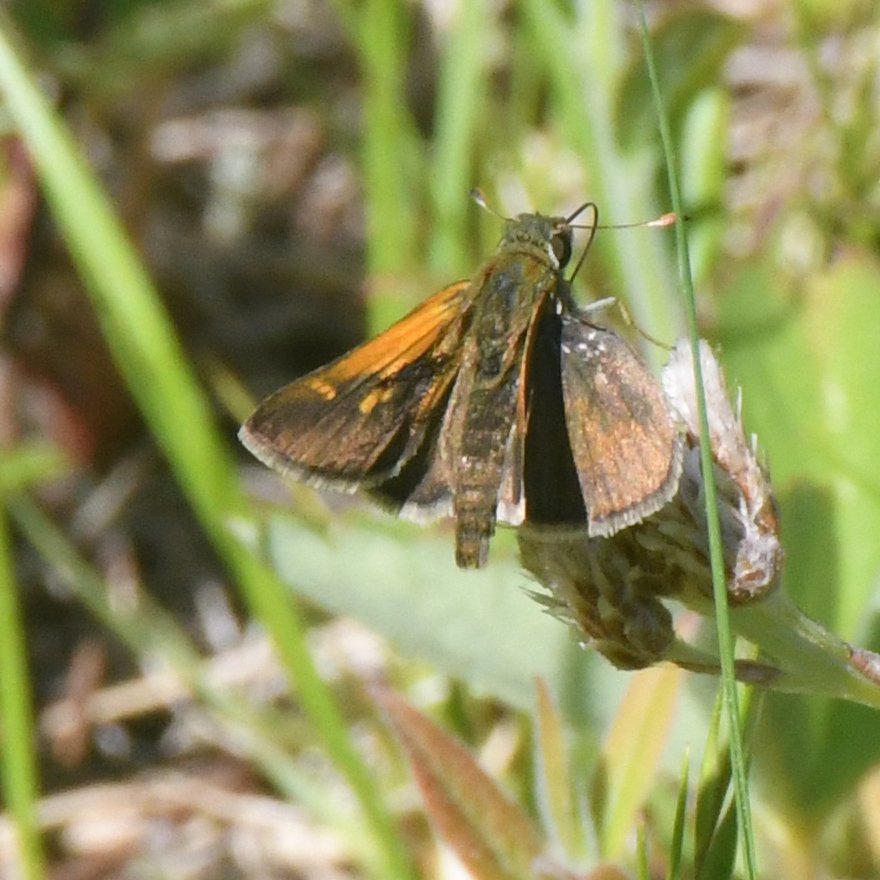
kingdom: Animalia
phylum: Arthropoda
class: Insecta
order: Lepidoptera
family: Hesperiidae
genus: Polites
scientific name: Polites themistocles
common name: Tawny-edged Skipper
